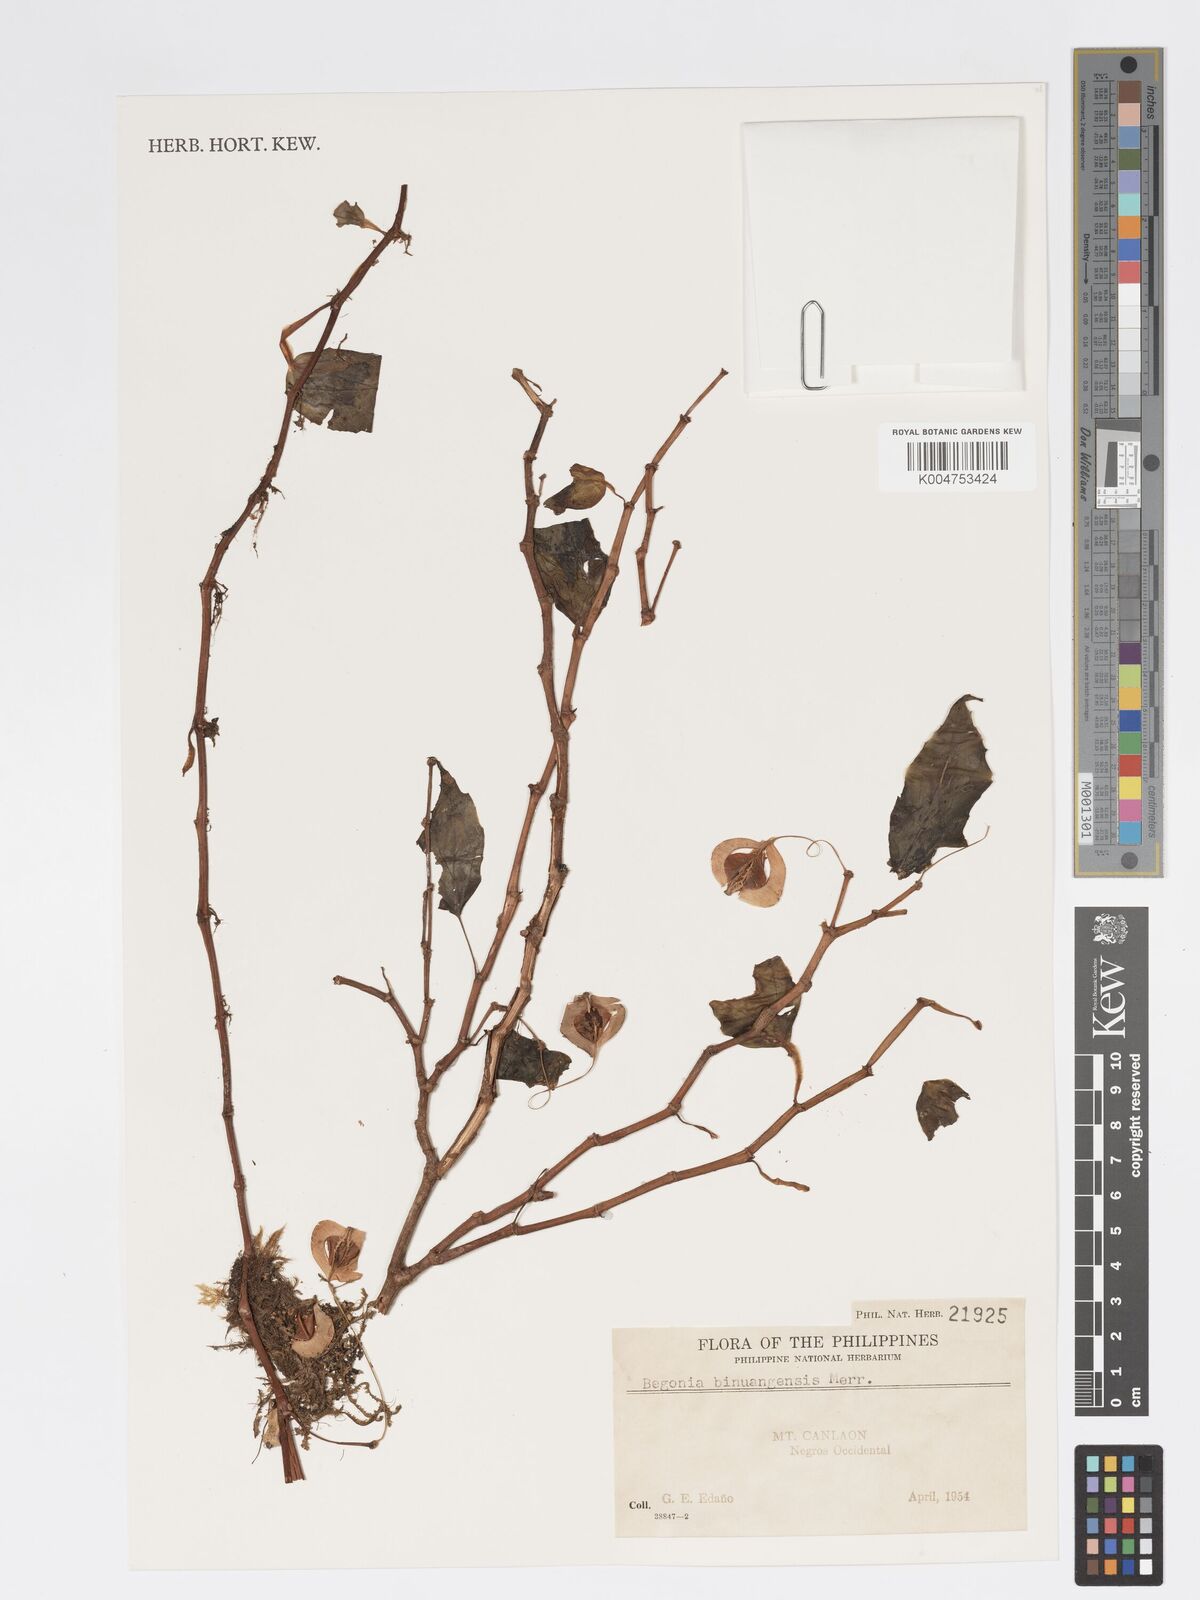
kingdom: Plantae
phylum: Tracheophyta
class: Magnoliopsida
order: Cucurbitales
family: Begoniaceae
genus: Begonia
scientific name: Begonia binuangensis
